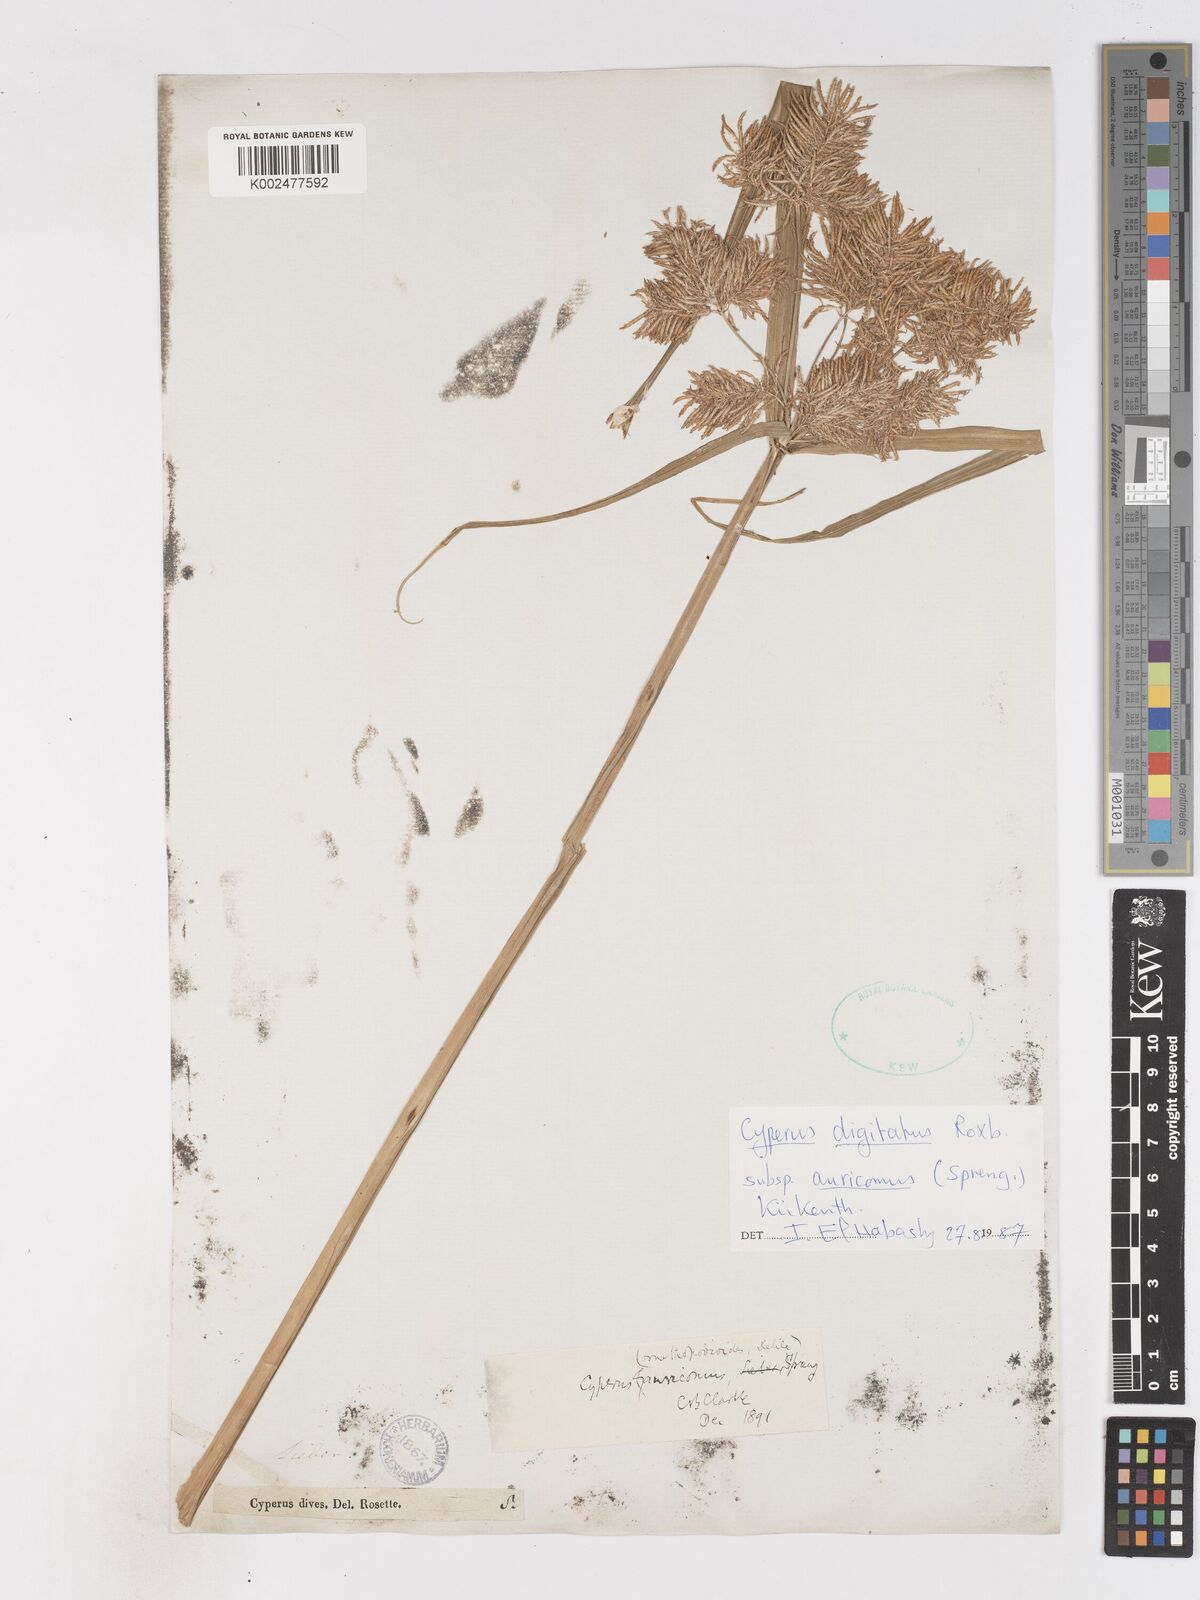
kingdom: Plantae
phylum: Tracheophyta
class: Liliopsida
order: Poales
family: Cyperaceae
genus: Cyperus
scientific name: Cyperus digitatus
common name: Finger flatsedge
